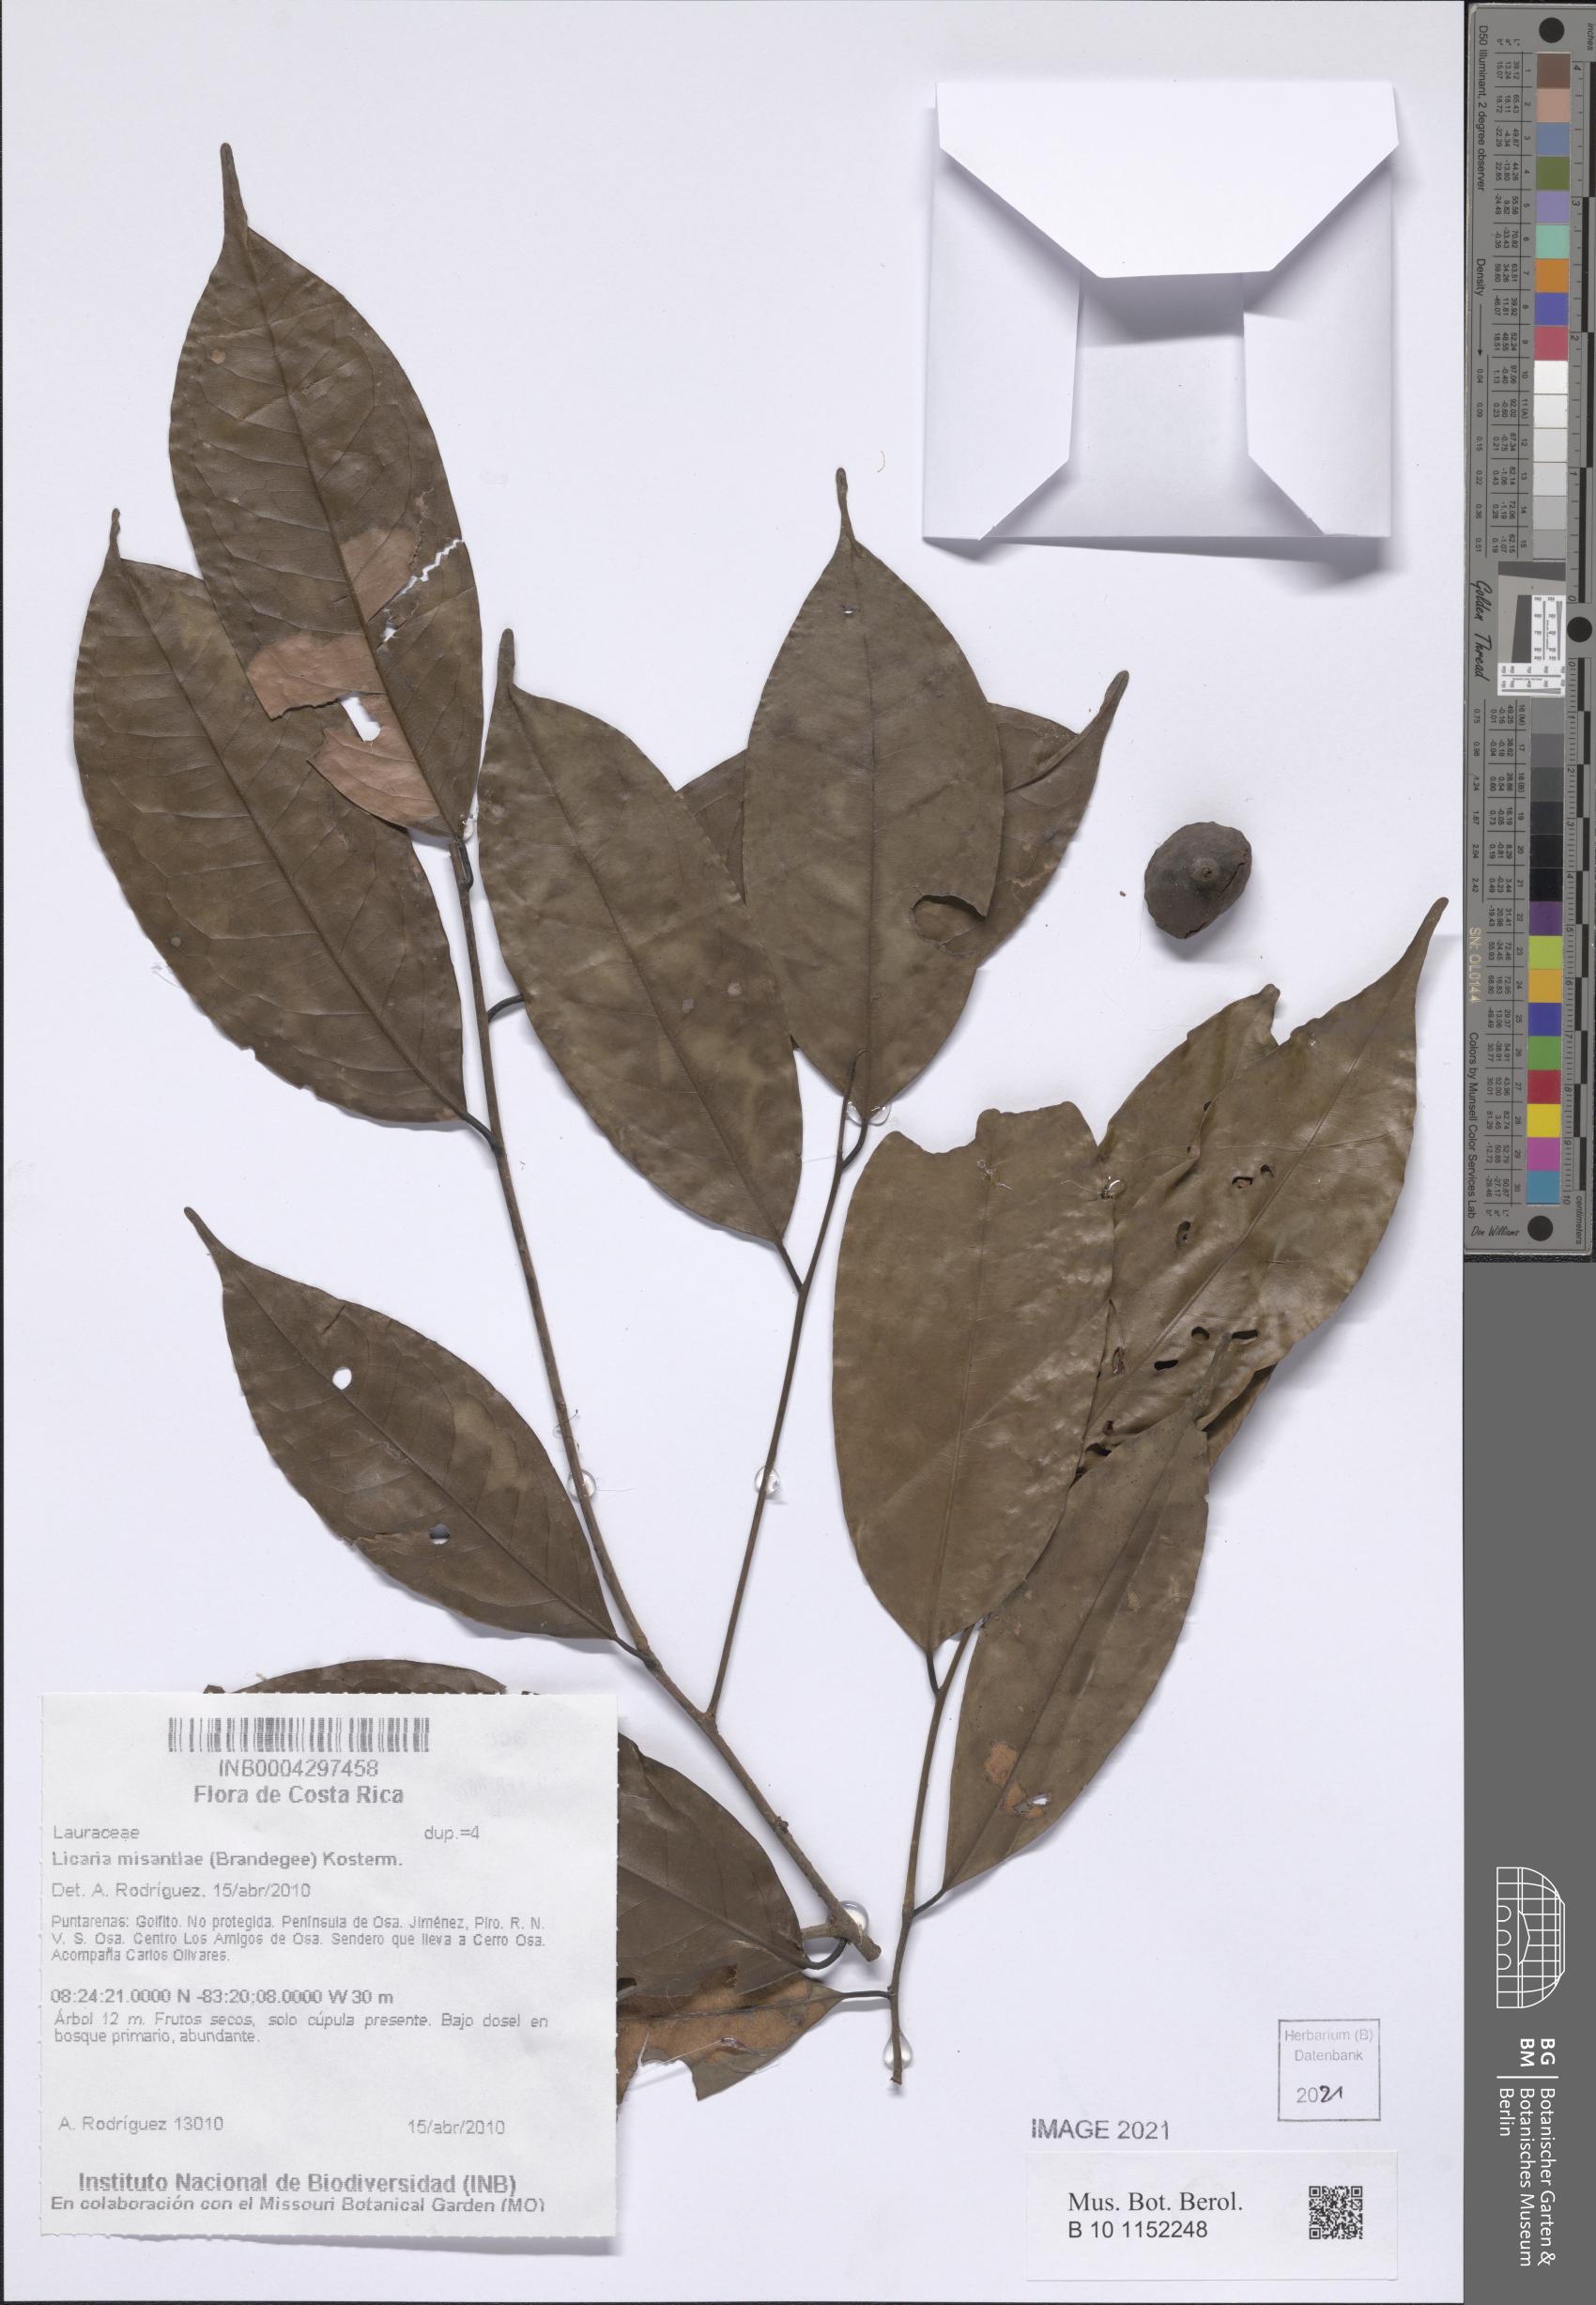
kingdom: Plantae
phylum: Tracheophyta
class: Magnoliopsida
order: Laurales
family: Lauraceae
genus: Licaria
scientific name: Licaria misantlae
